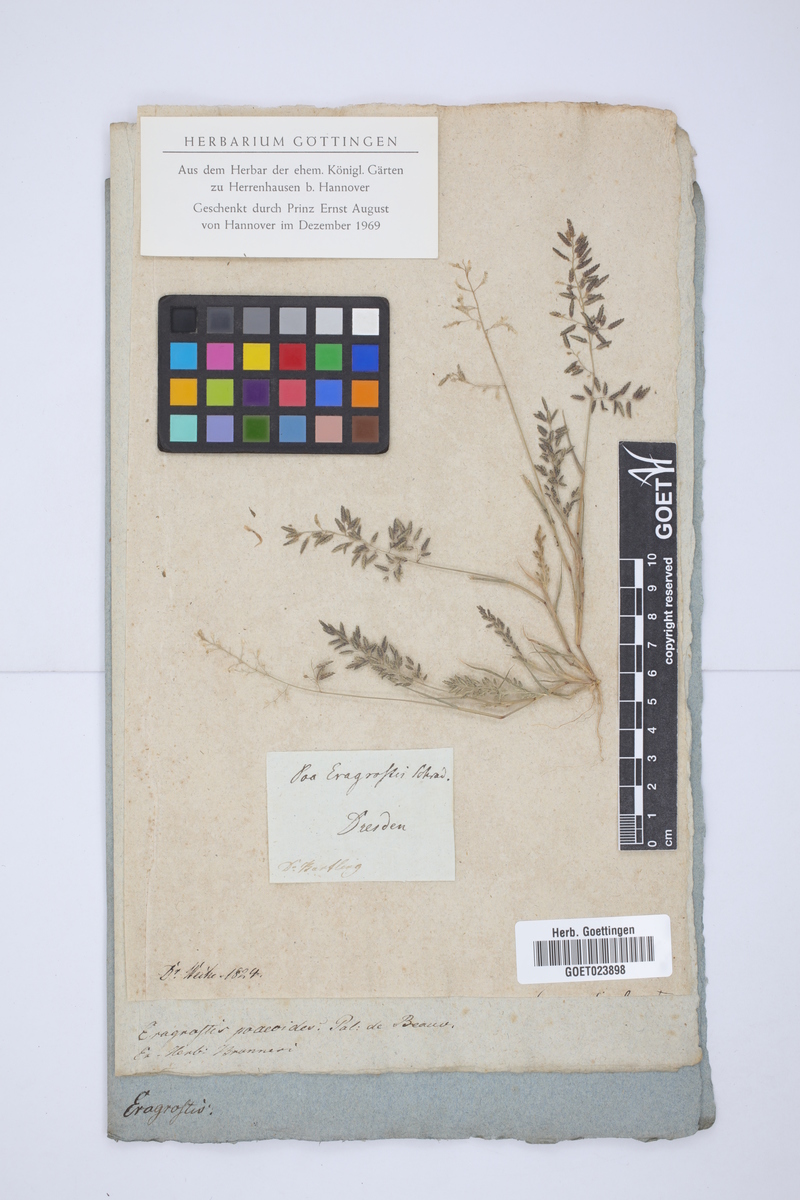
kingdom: Plantae
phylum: Tracheophyta
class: Liliopsida
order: Poales
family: Poaceae
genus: Eragrostis
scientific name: Eragrostis minor
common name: Small love-grass
